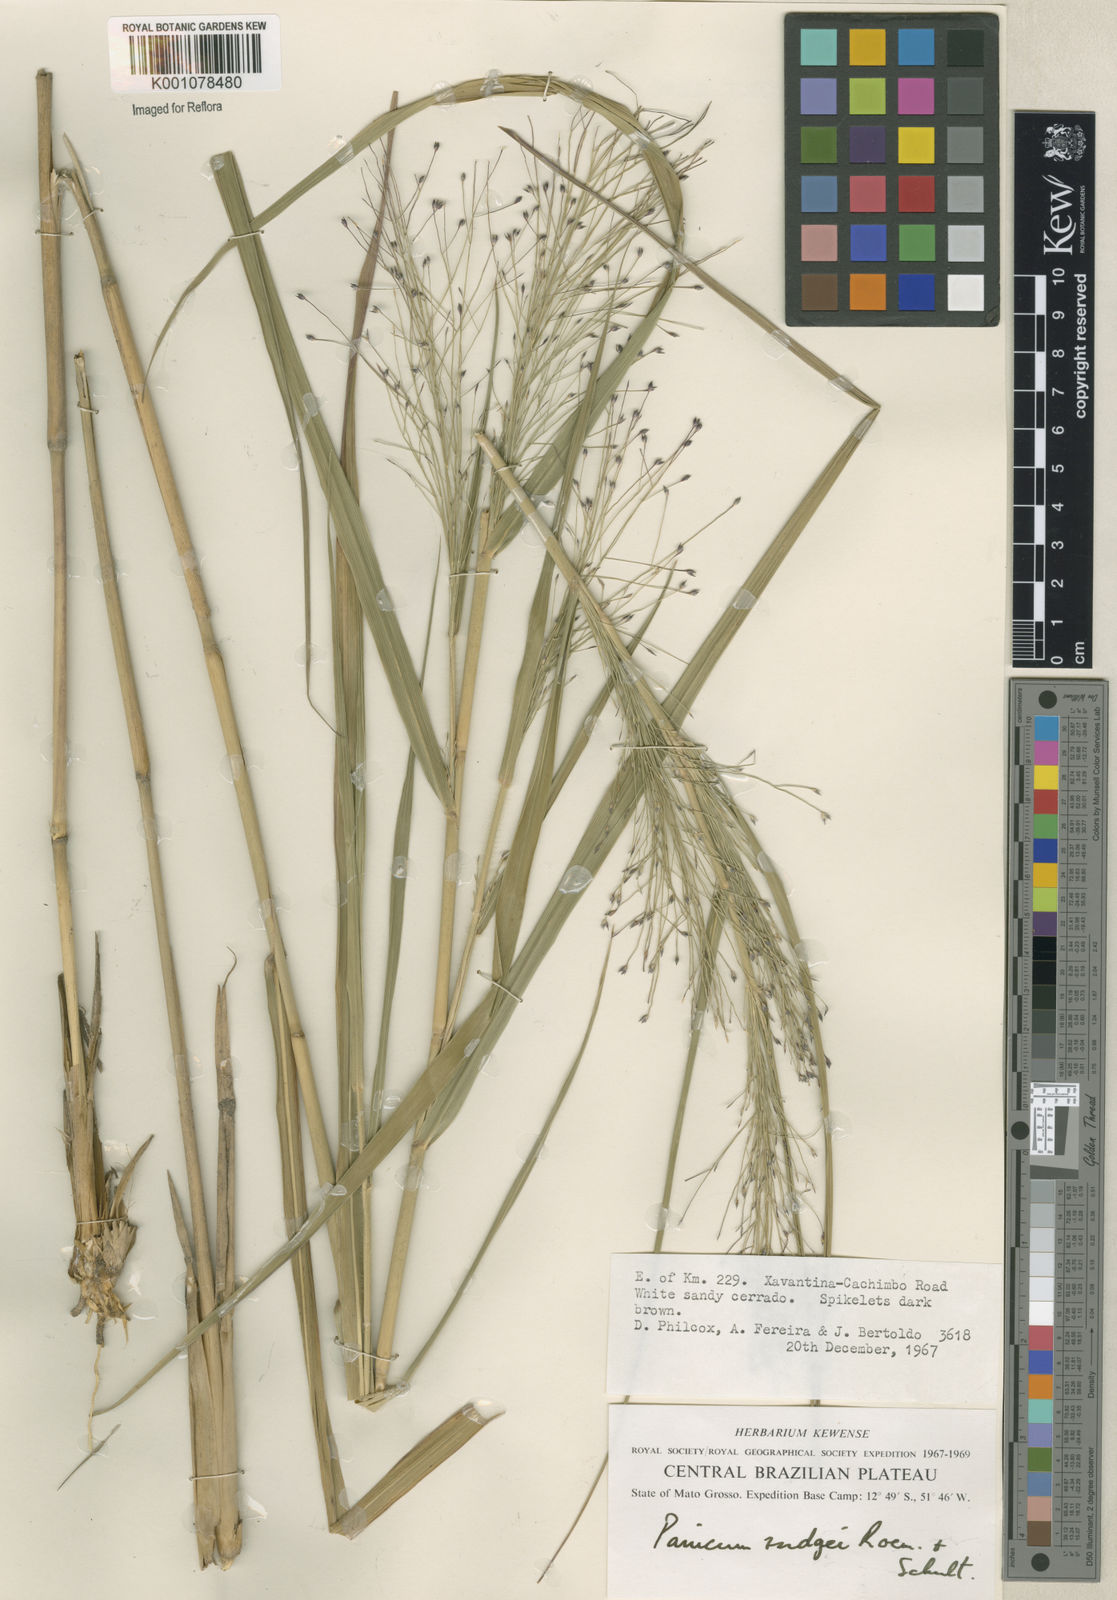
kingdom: Plantae
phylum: Tracheophyta
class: Liliopsida
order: Poales
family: Poaceae
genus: Panicum
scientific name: Panicum rudgei
